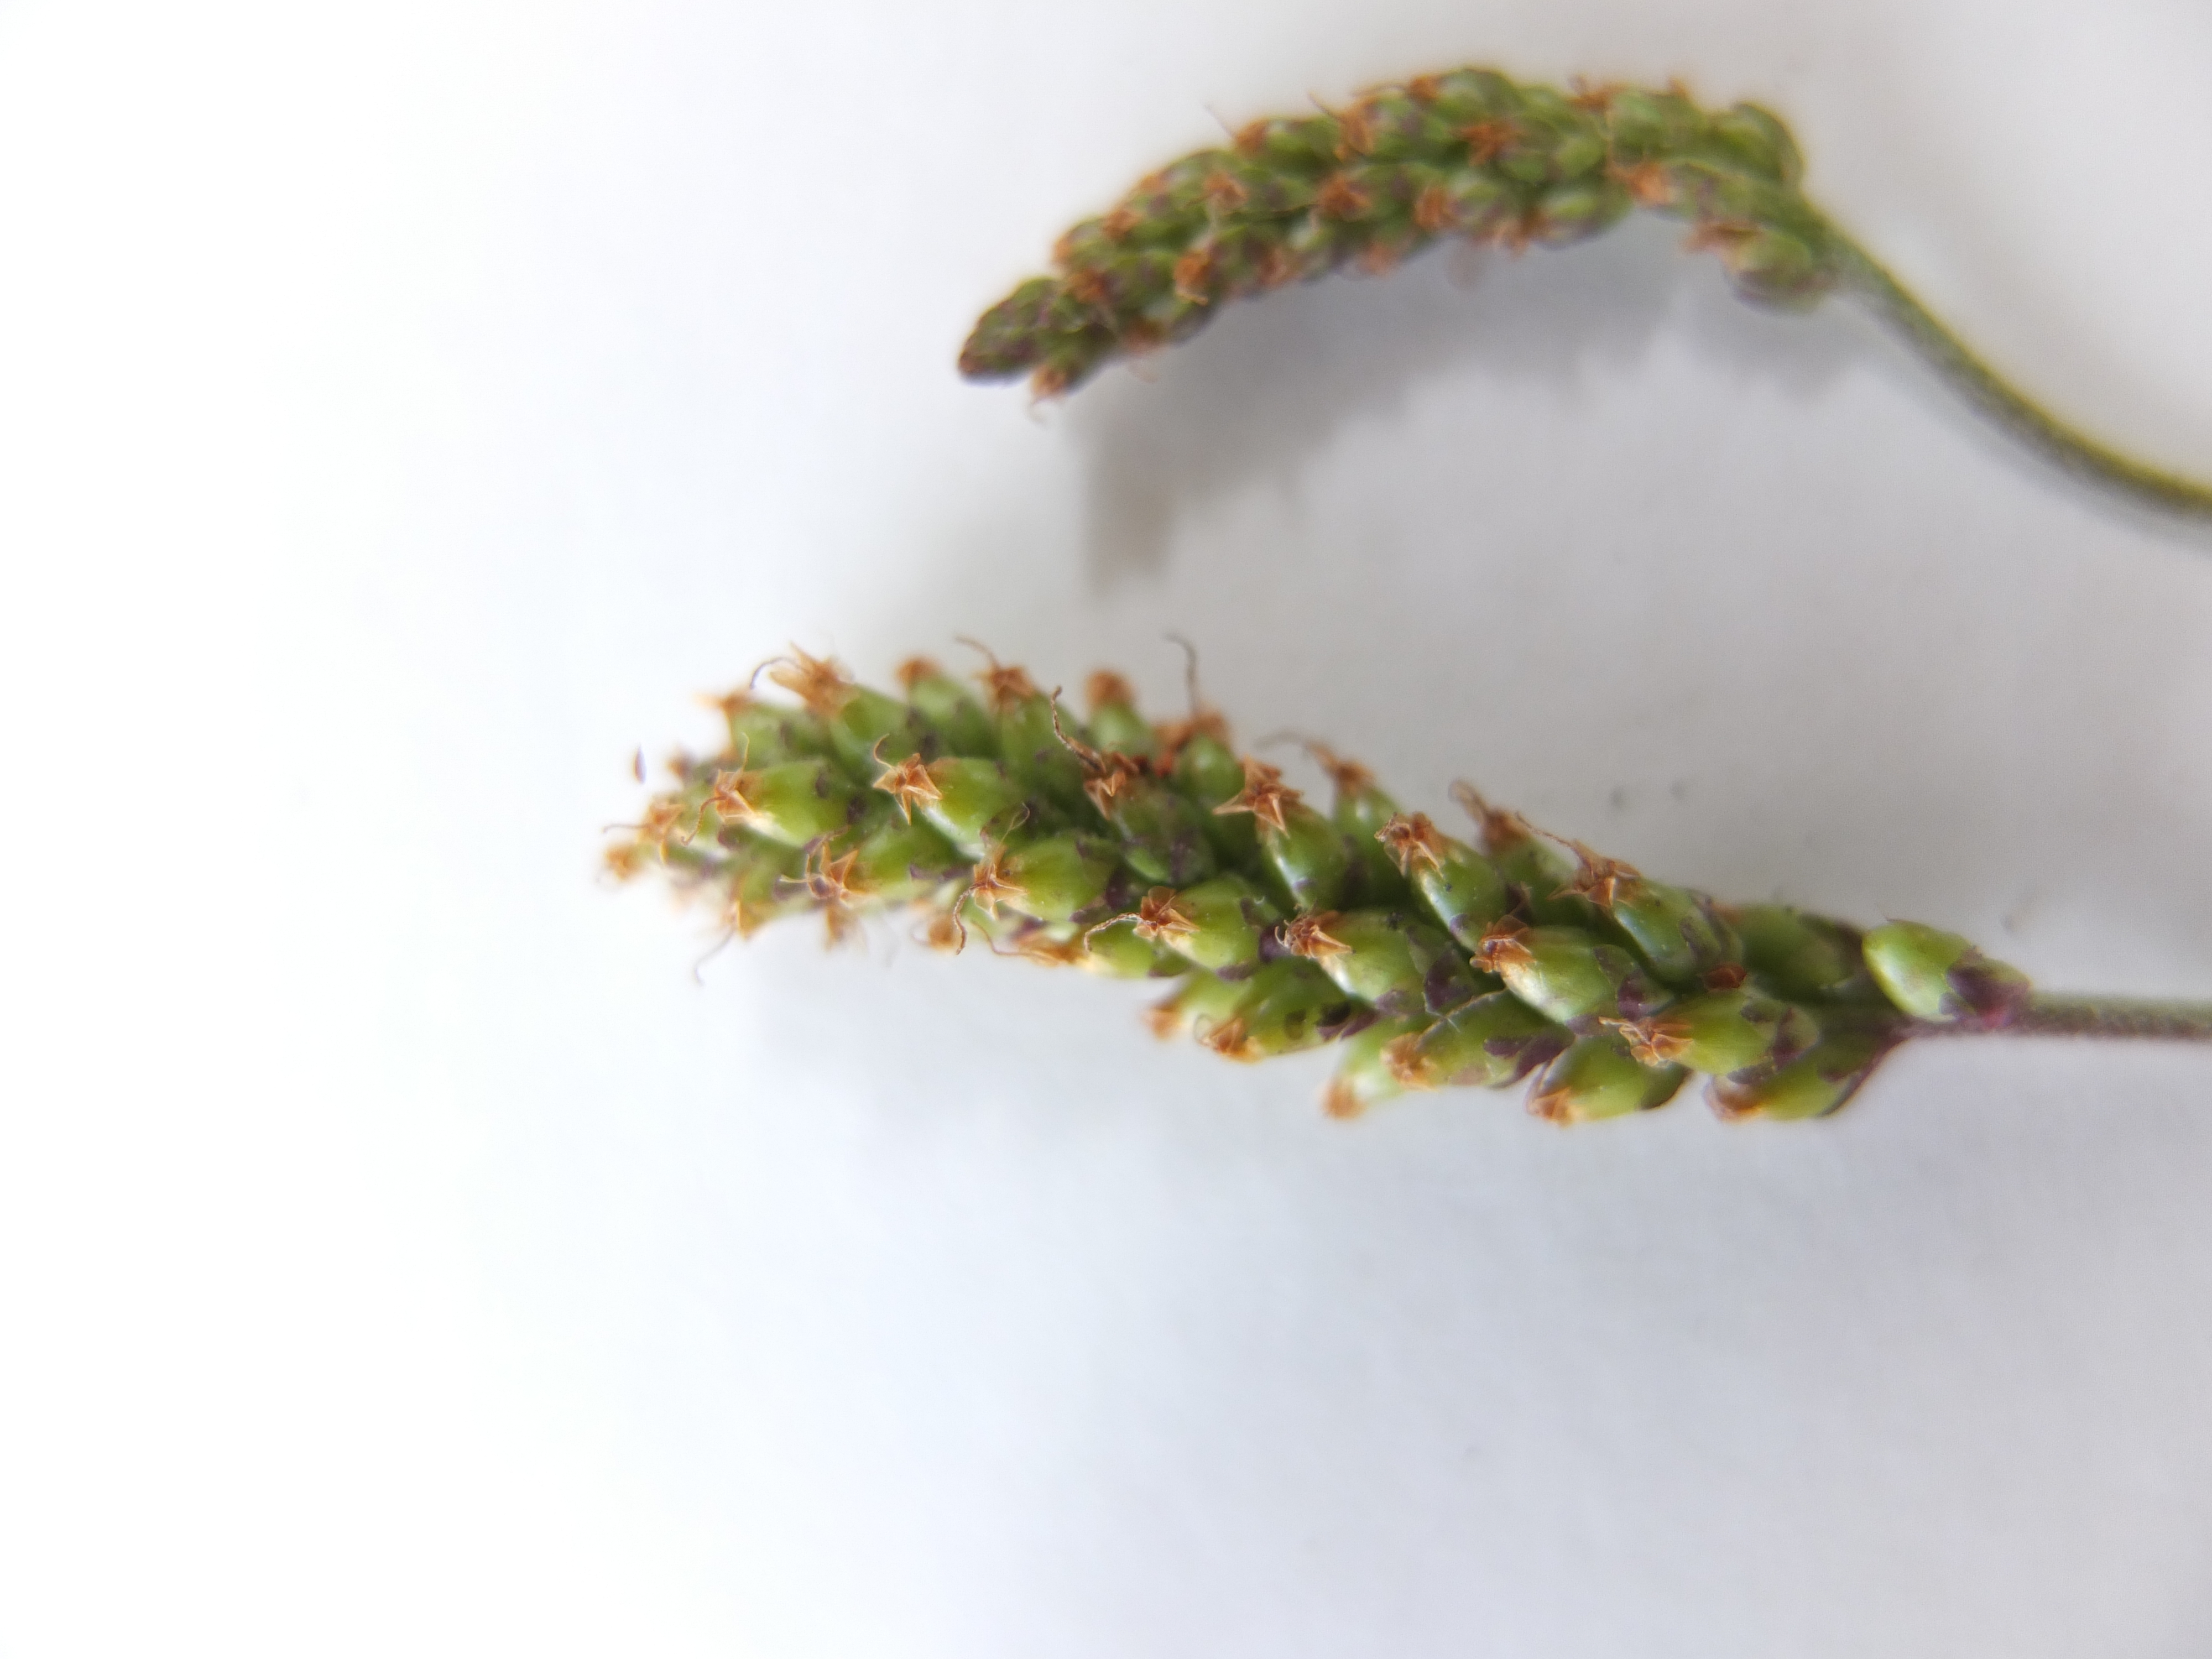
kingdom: Plantae
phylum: Tracheophyta
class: Magnoliopsida
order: Lamiales
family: Plantaginaceae
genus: Plantago
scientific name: Plantago uliginosa
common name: Ager-vejbred
